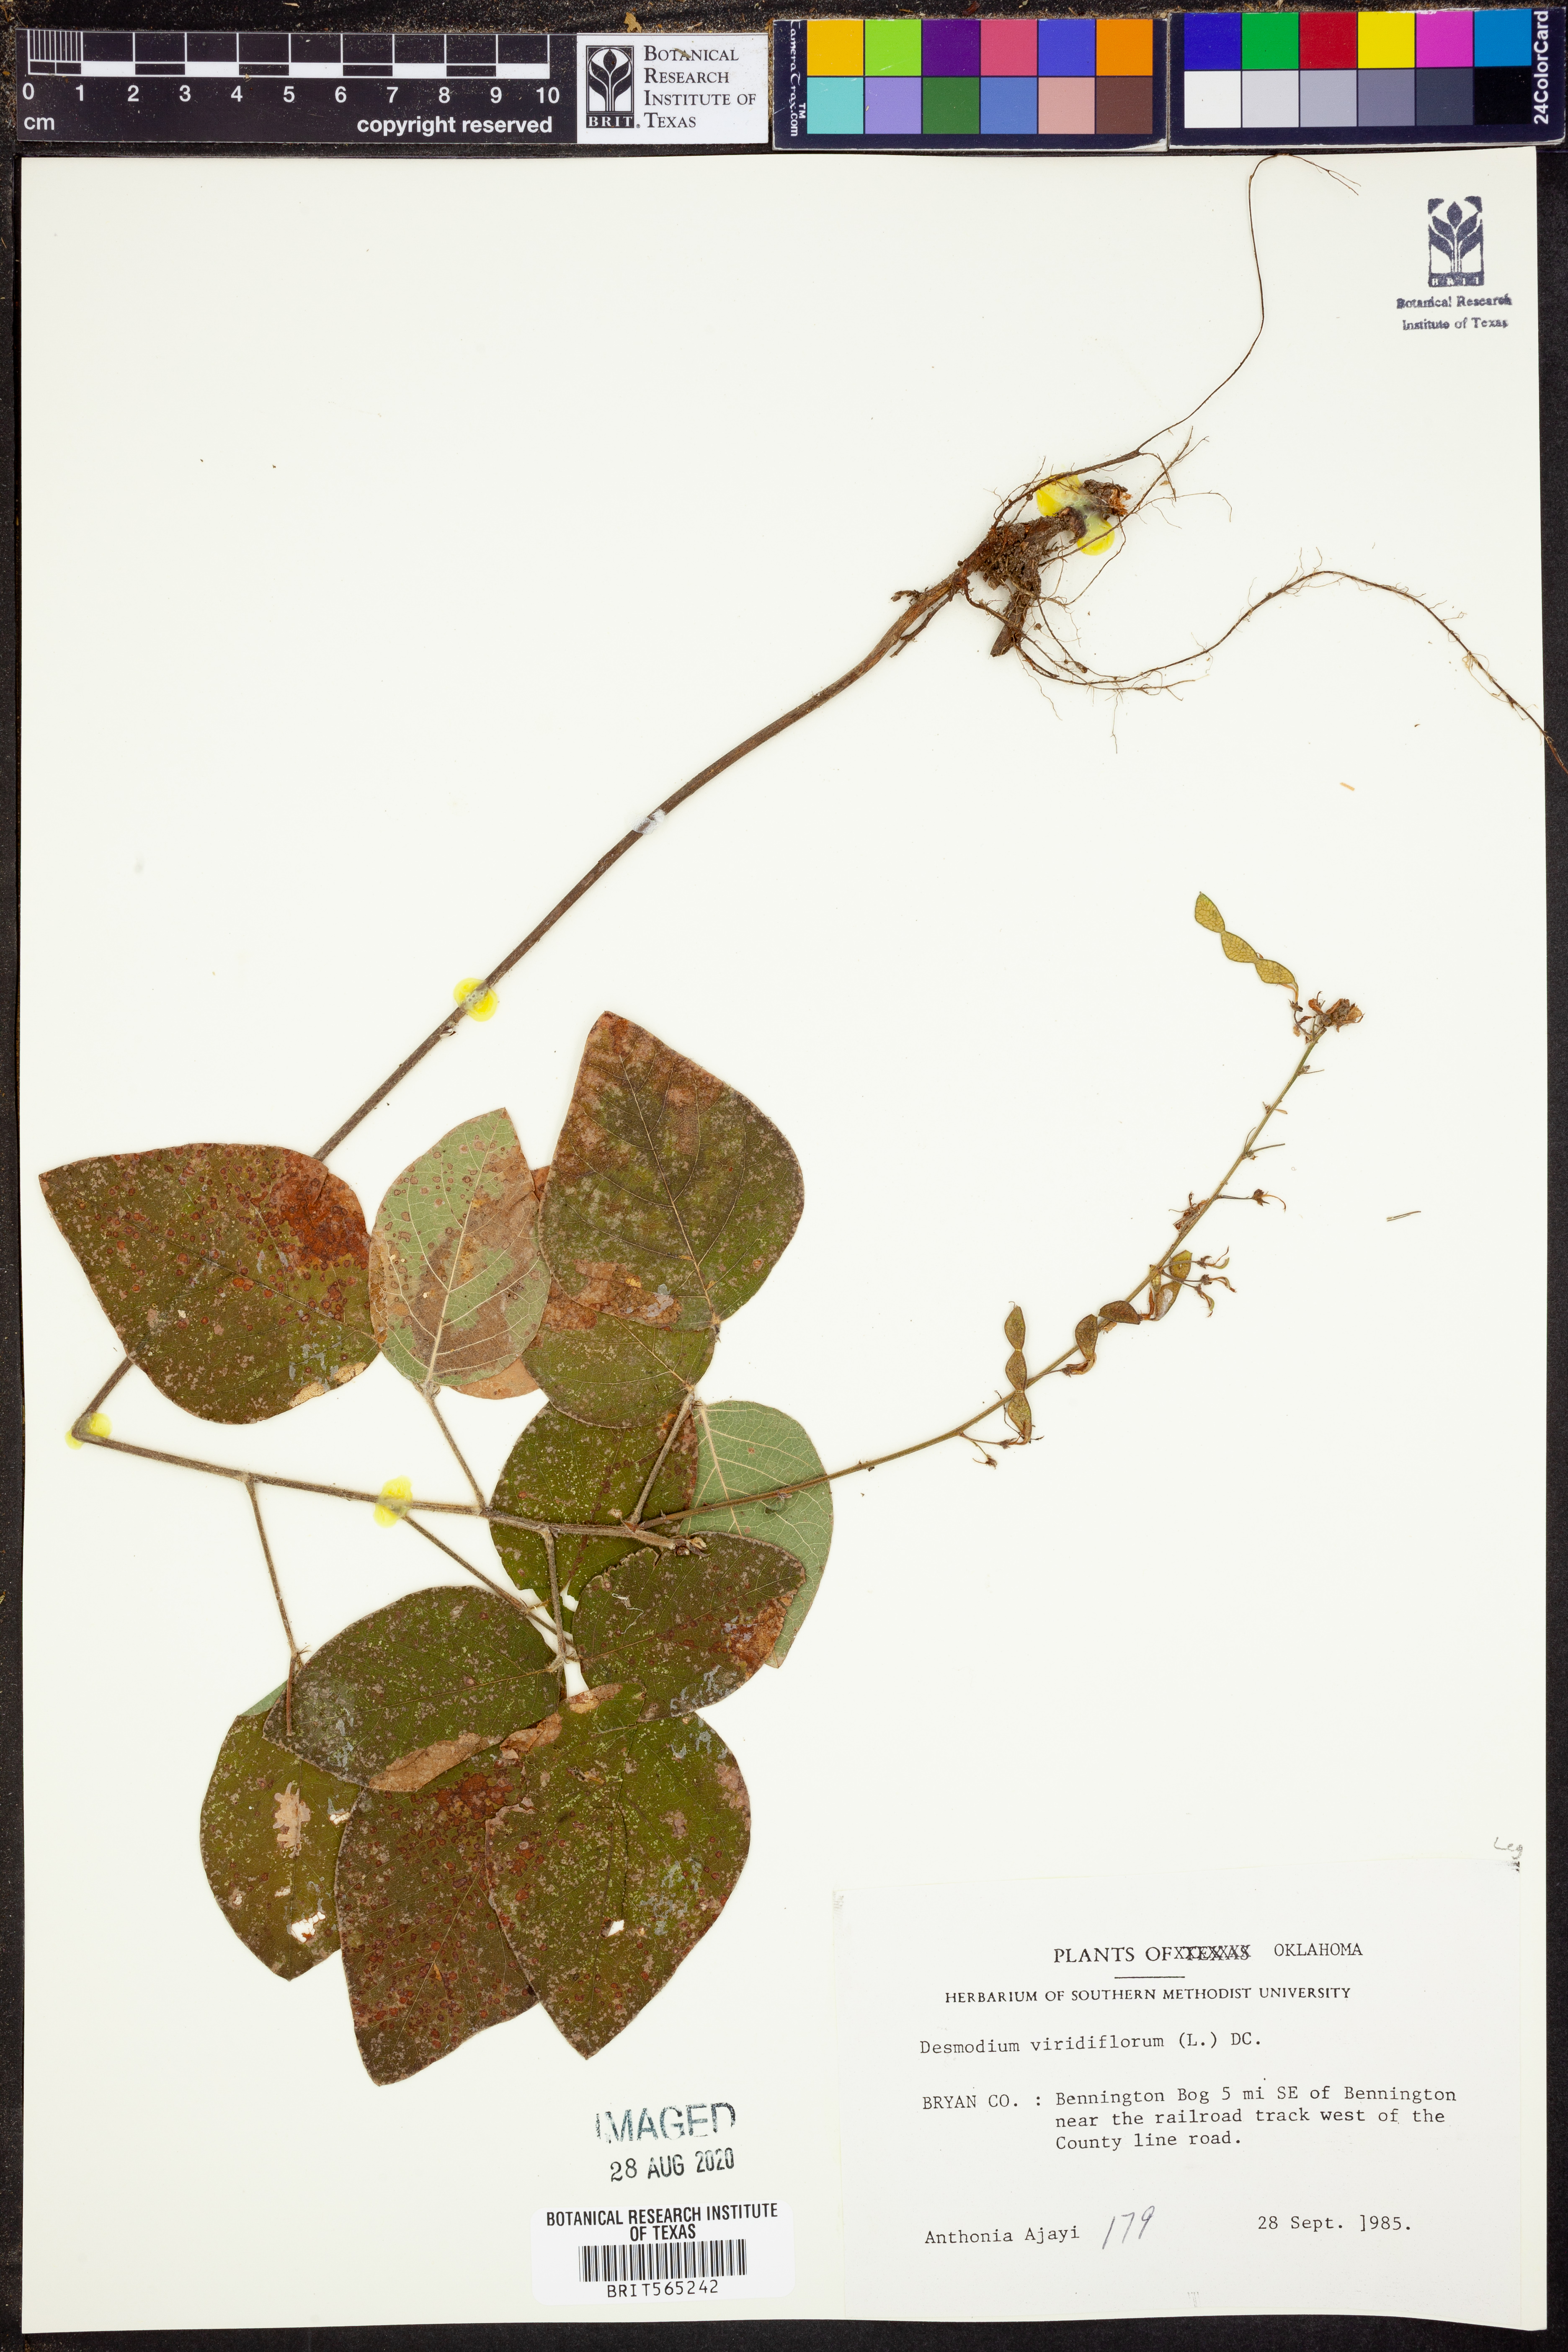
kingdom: Plantae
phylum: Tracheophyta
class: Magnoliopsida
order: Fabales
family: Fabaceae
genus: Desmodium
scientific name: Desmodium viridiflorum
